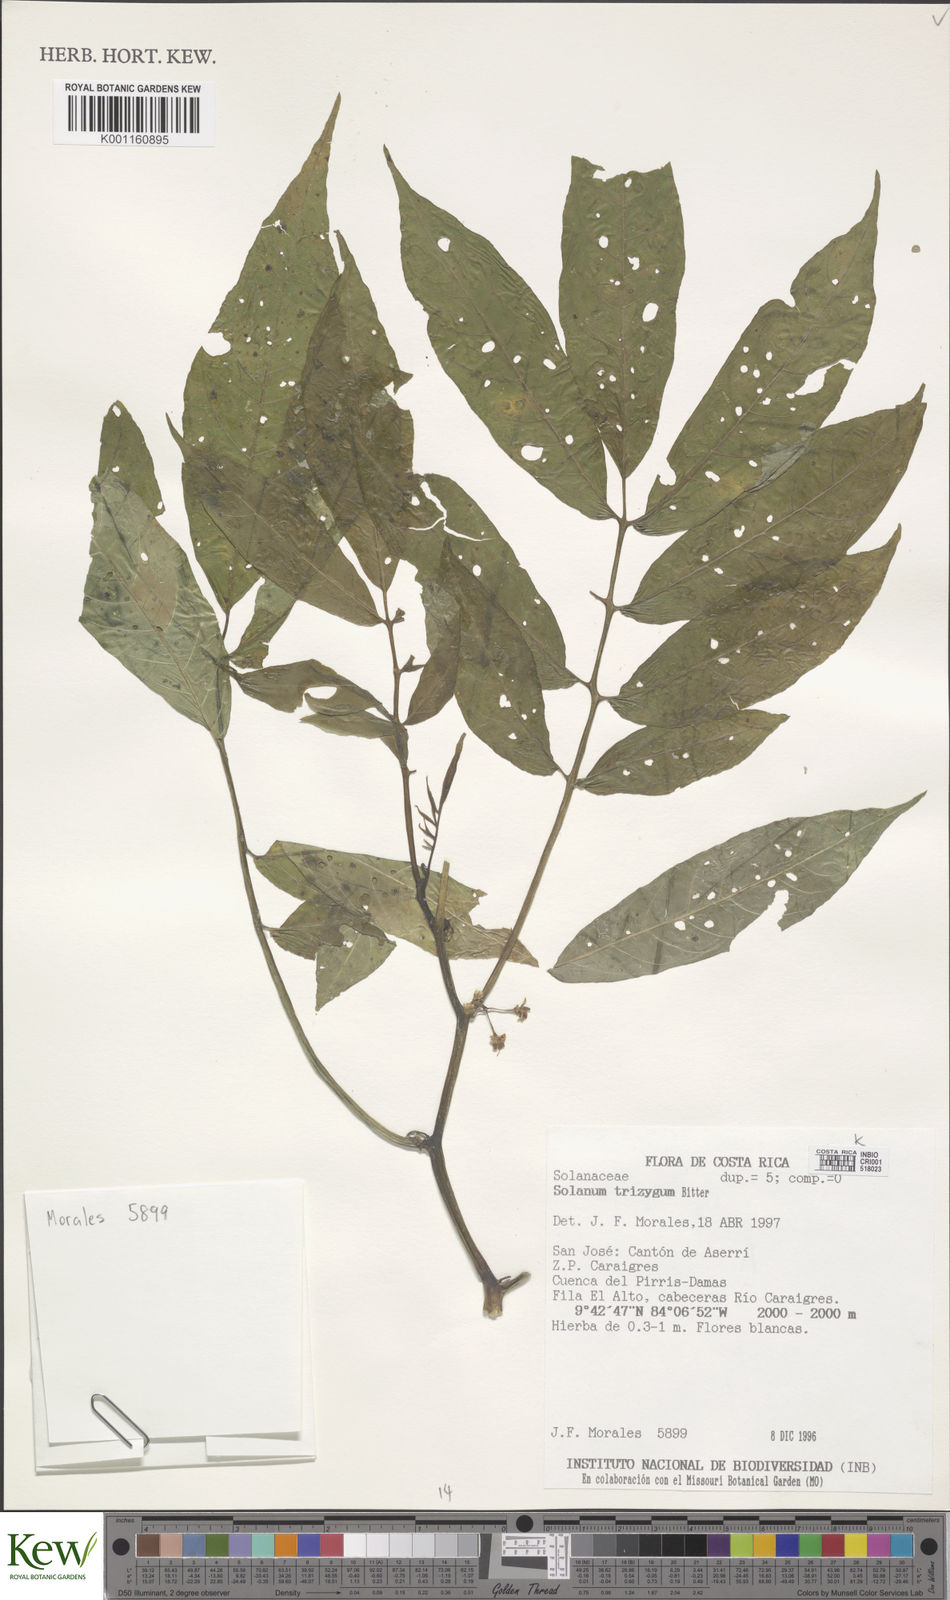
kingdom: Plantae
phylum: Tracheophyta
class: Magnoliopsida
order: Solanales
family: Solanaceae
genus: Solanum
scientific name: Solanum trizygum
